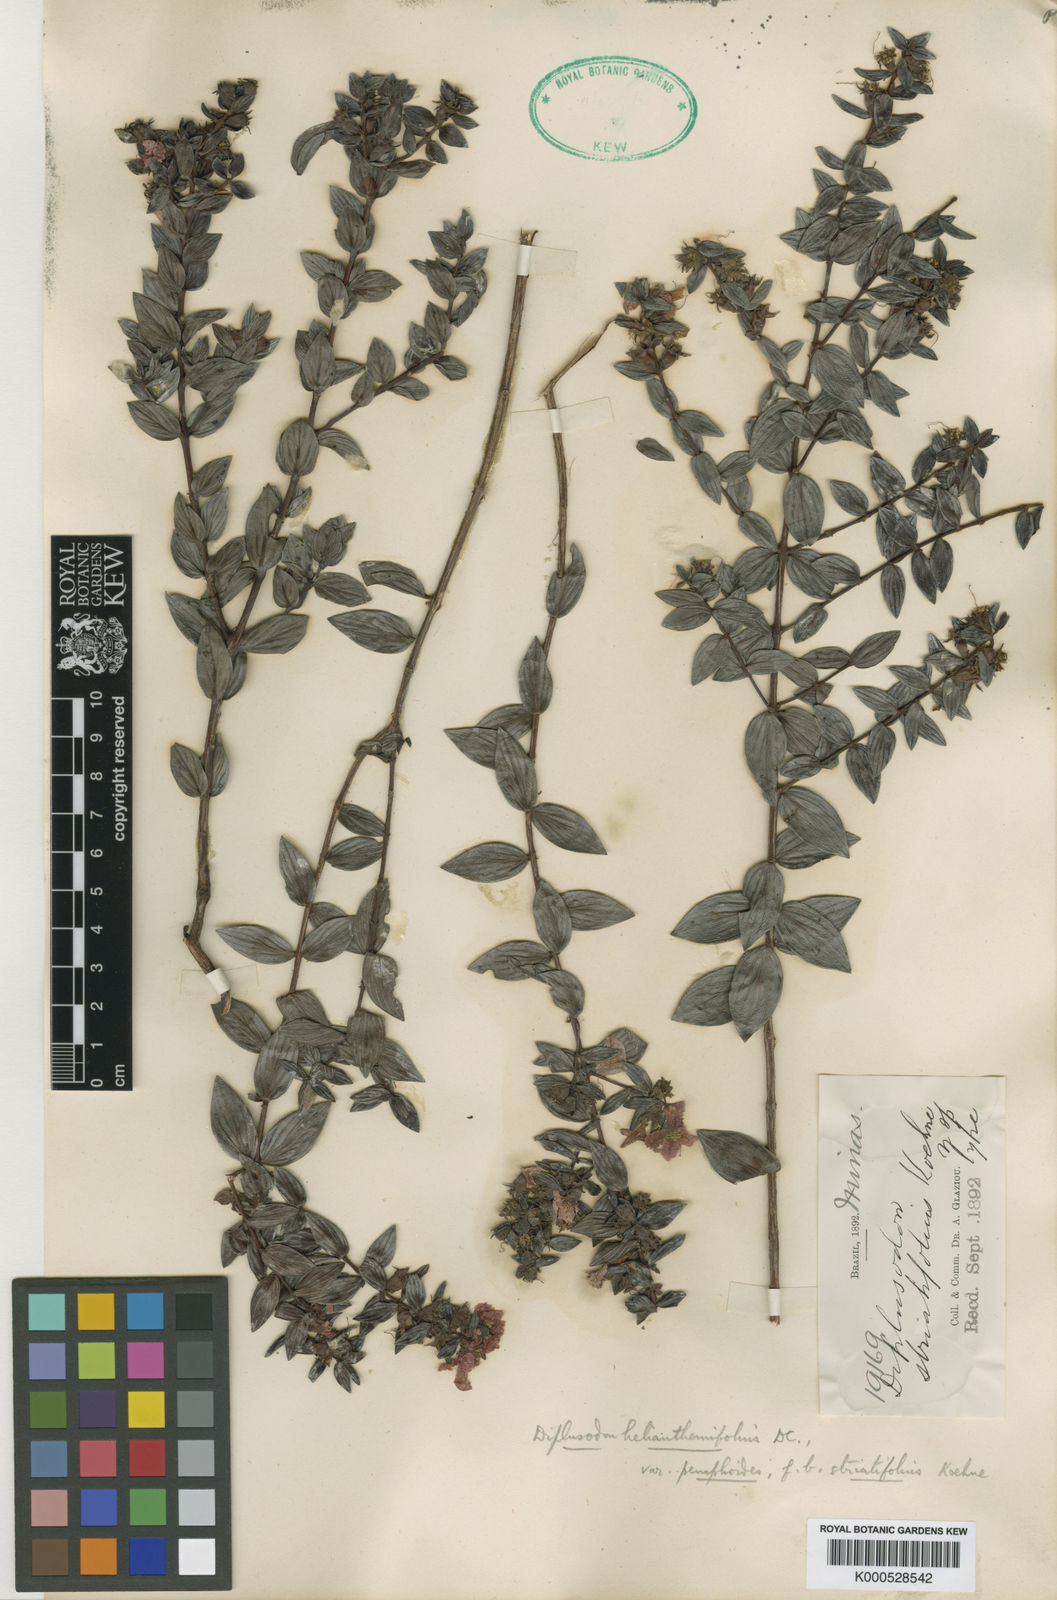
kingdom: Plantae
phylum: Tracheophyta
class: Magnoliopsida
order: Myrtales
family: Lythraceae
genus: Diplusodon
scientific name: Diplusodon helianthemifolius
